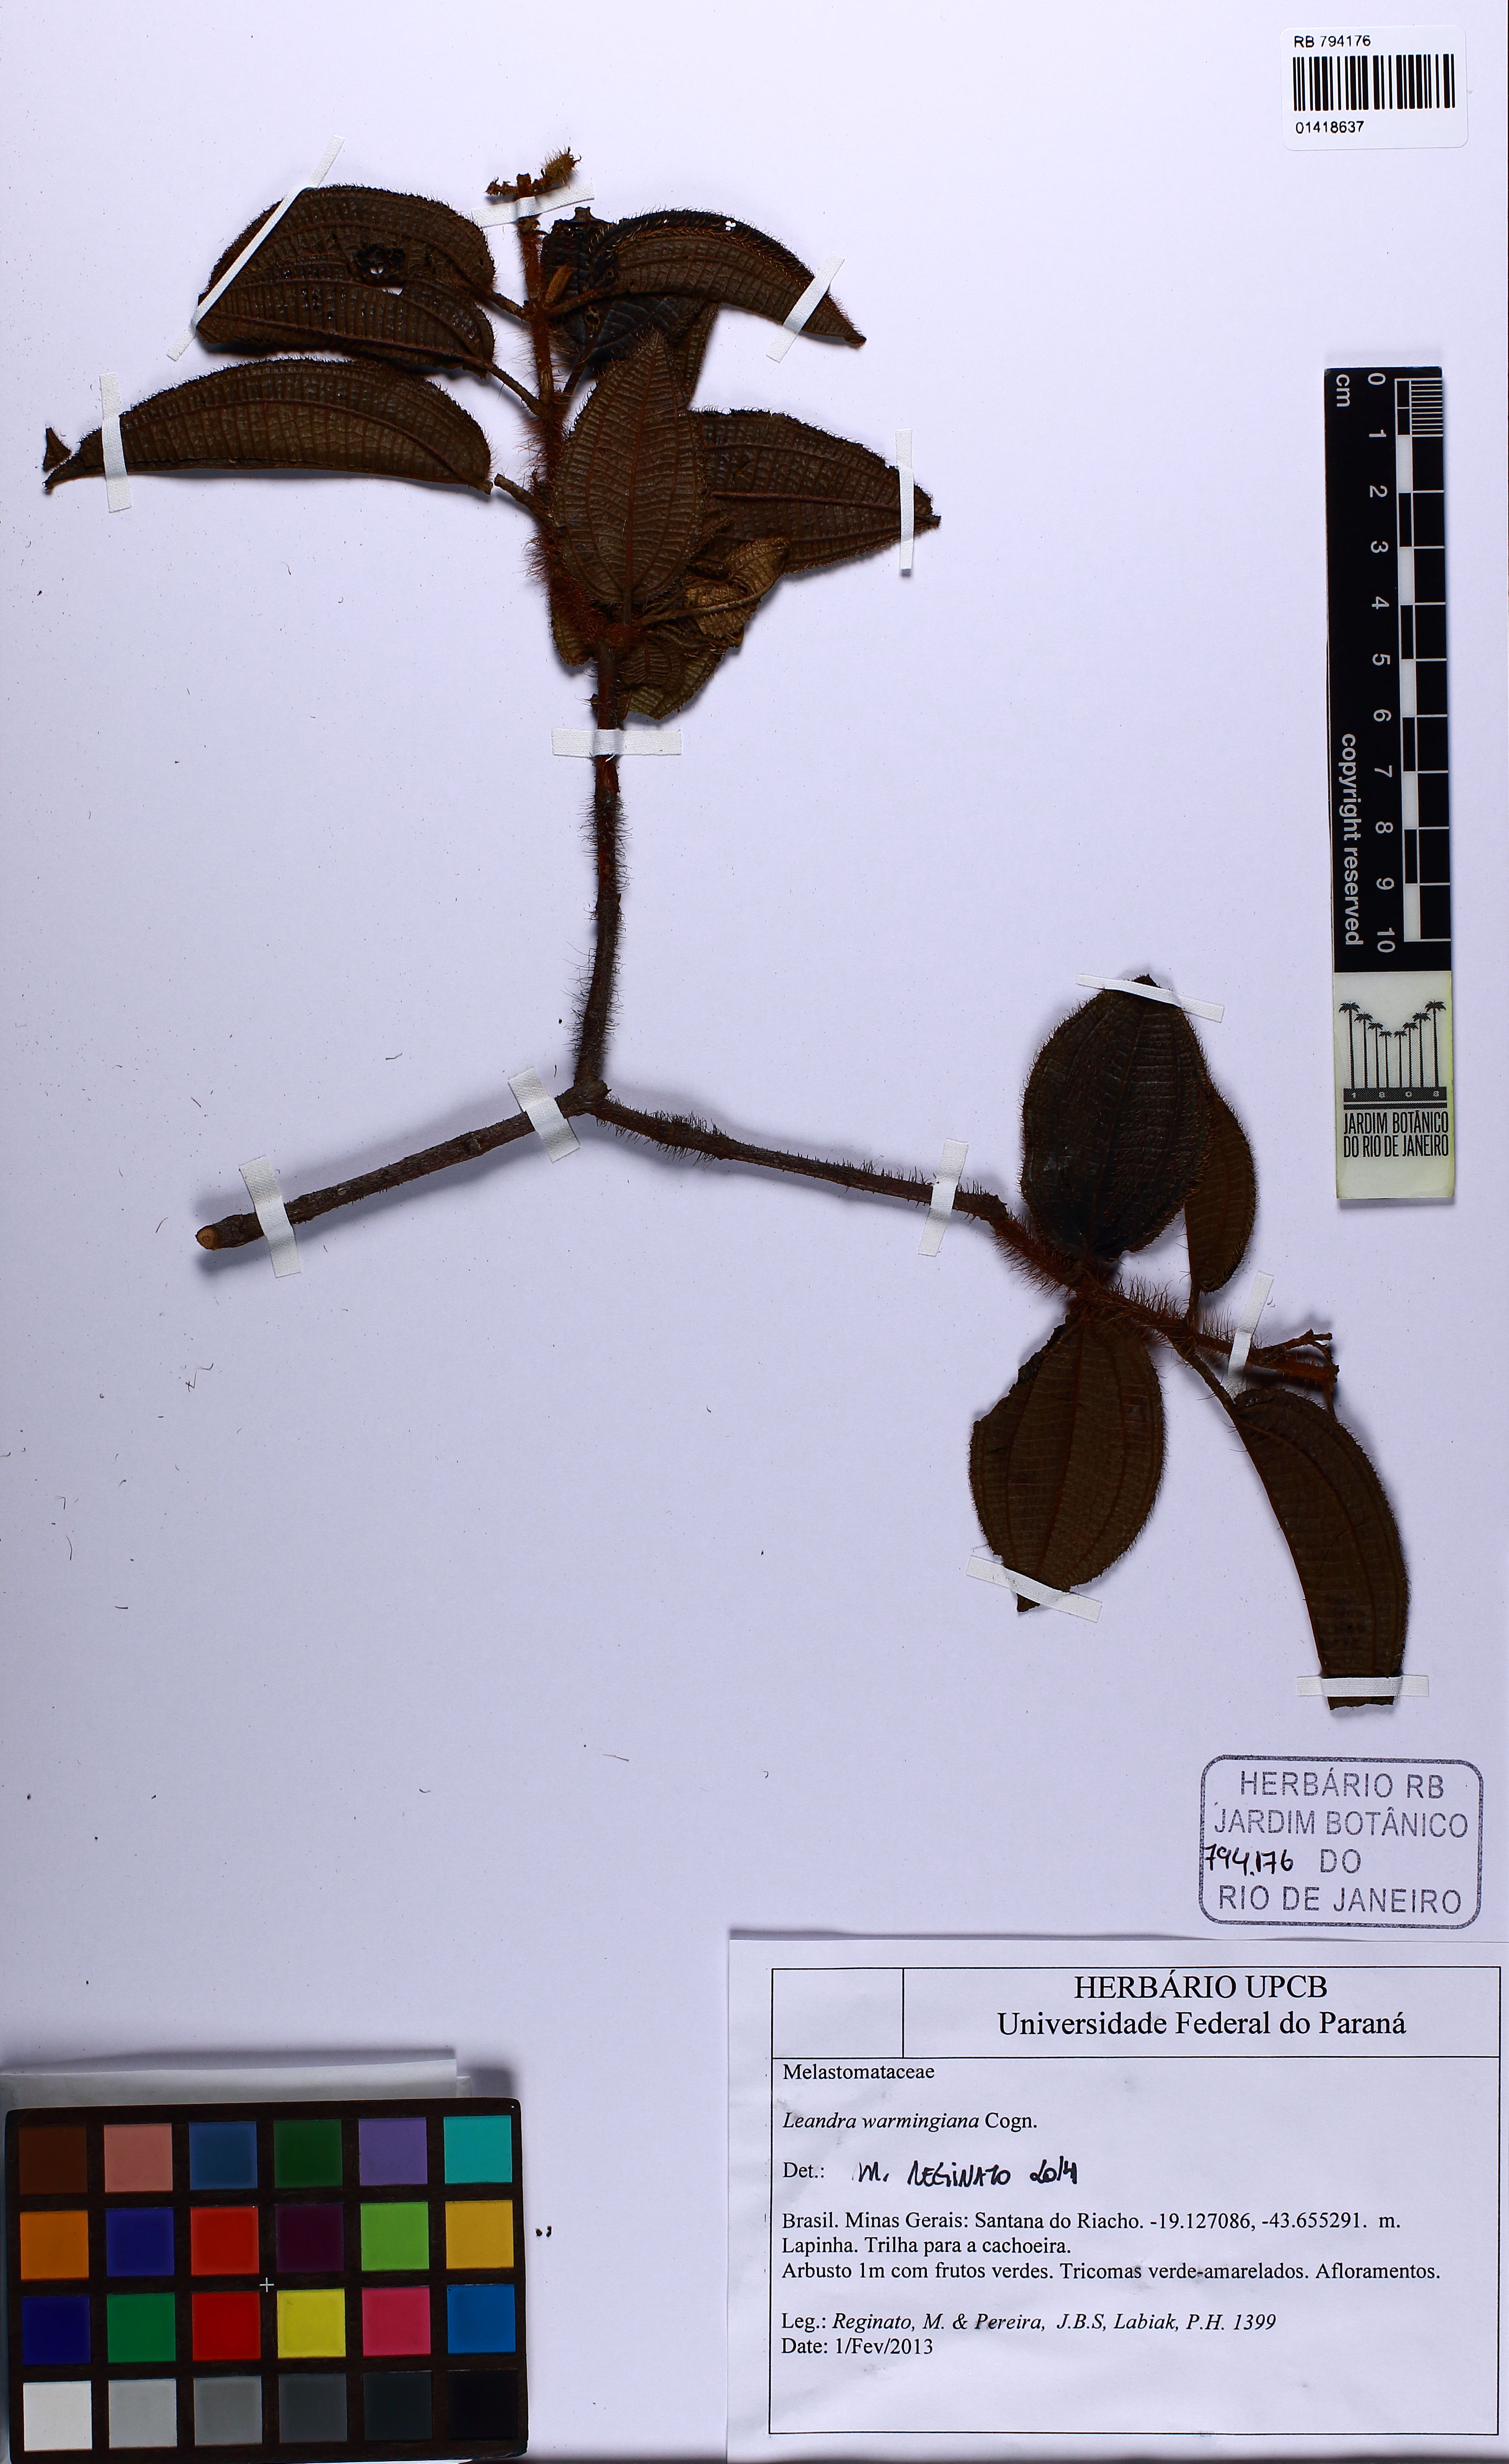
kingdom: Plantae
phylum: Tracheophyta
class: Magnoliopsida
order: Myrtales
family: Melastomataceae
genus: Miconia
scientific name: Miconia leawarmingiana
